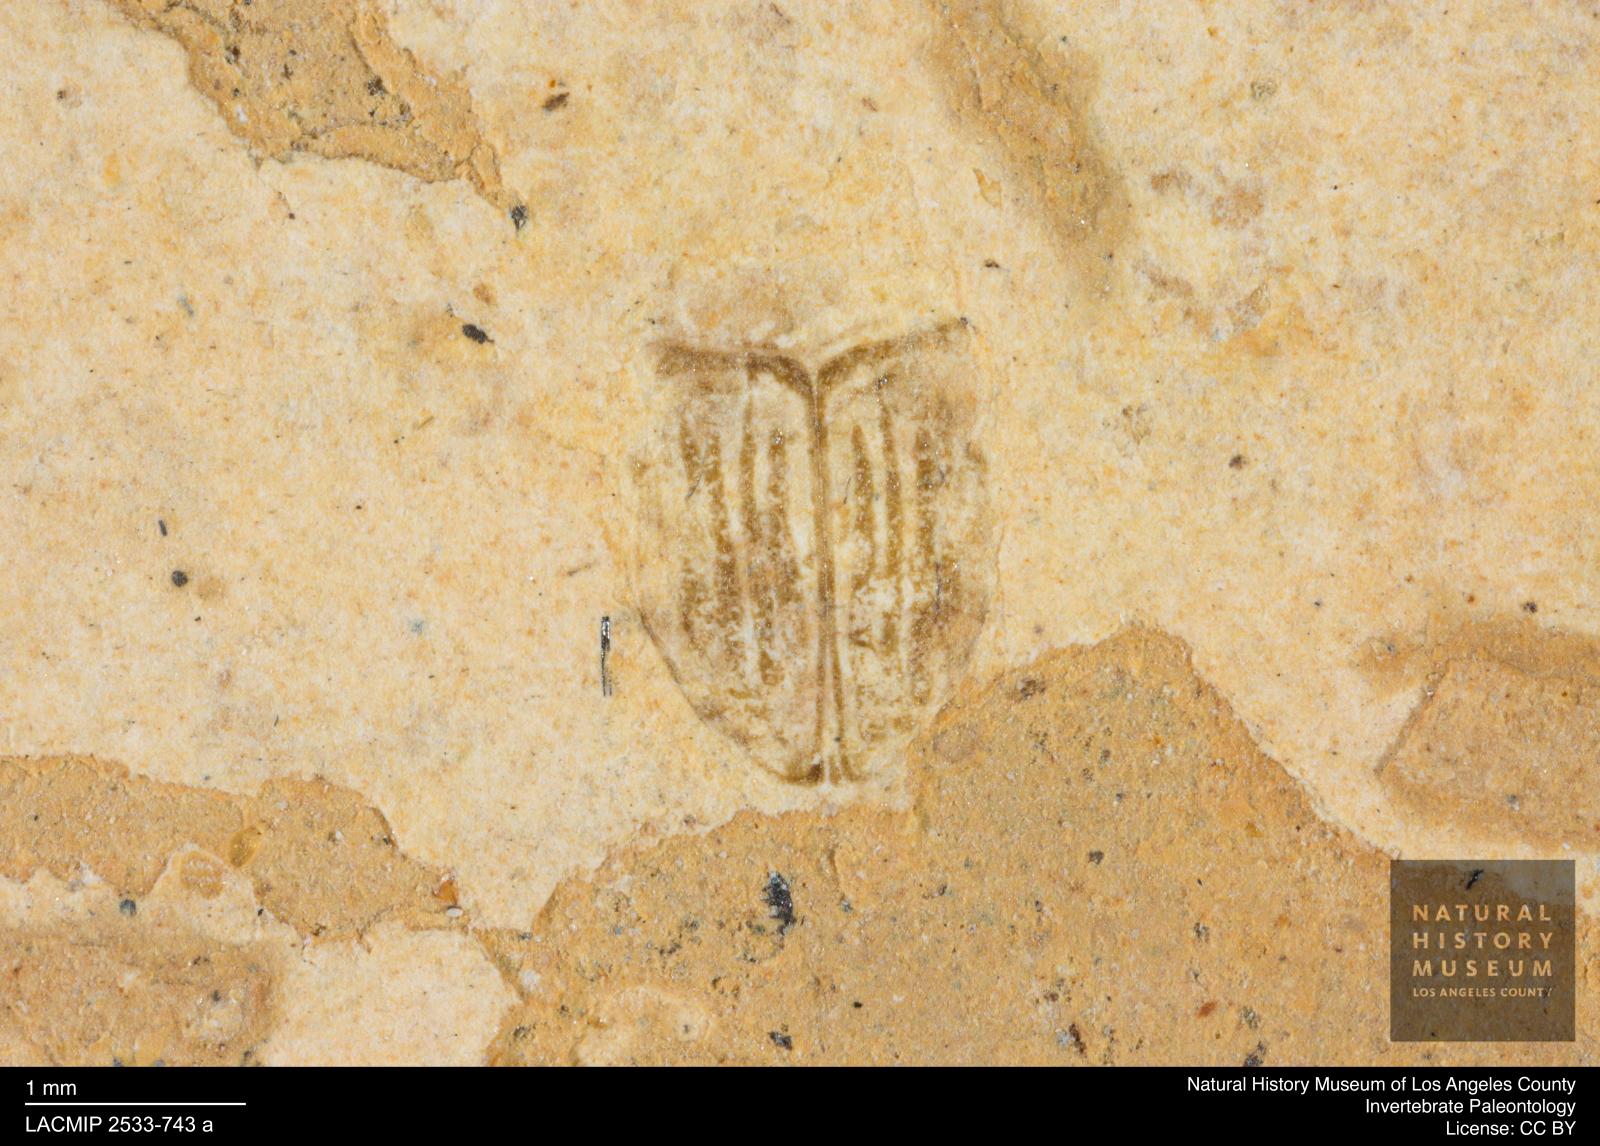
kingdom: Animalia
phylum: Arthropoda
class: Insecta
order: Coleoptera
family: Dytiscidae
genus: Oreodytes
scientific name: Oreodytes cryptolineatus
